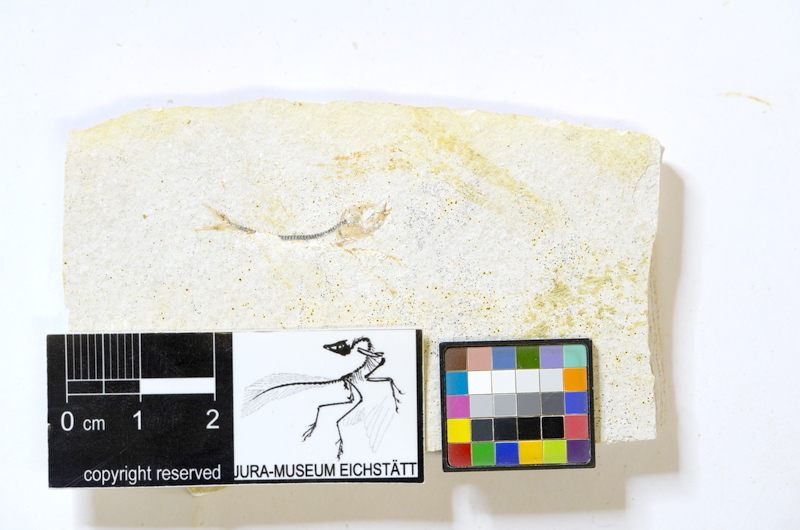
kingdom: Animalia
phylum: Chordata
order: Salmoniformes
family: Orthogonikleithridae
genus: Orthogonikleithrus
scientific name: Orthogonikleithrus hoelli
